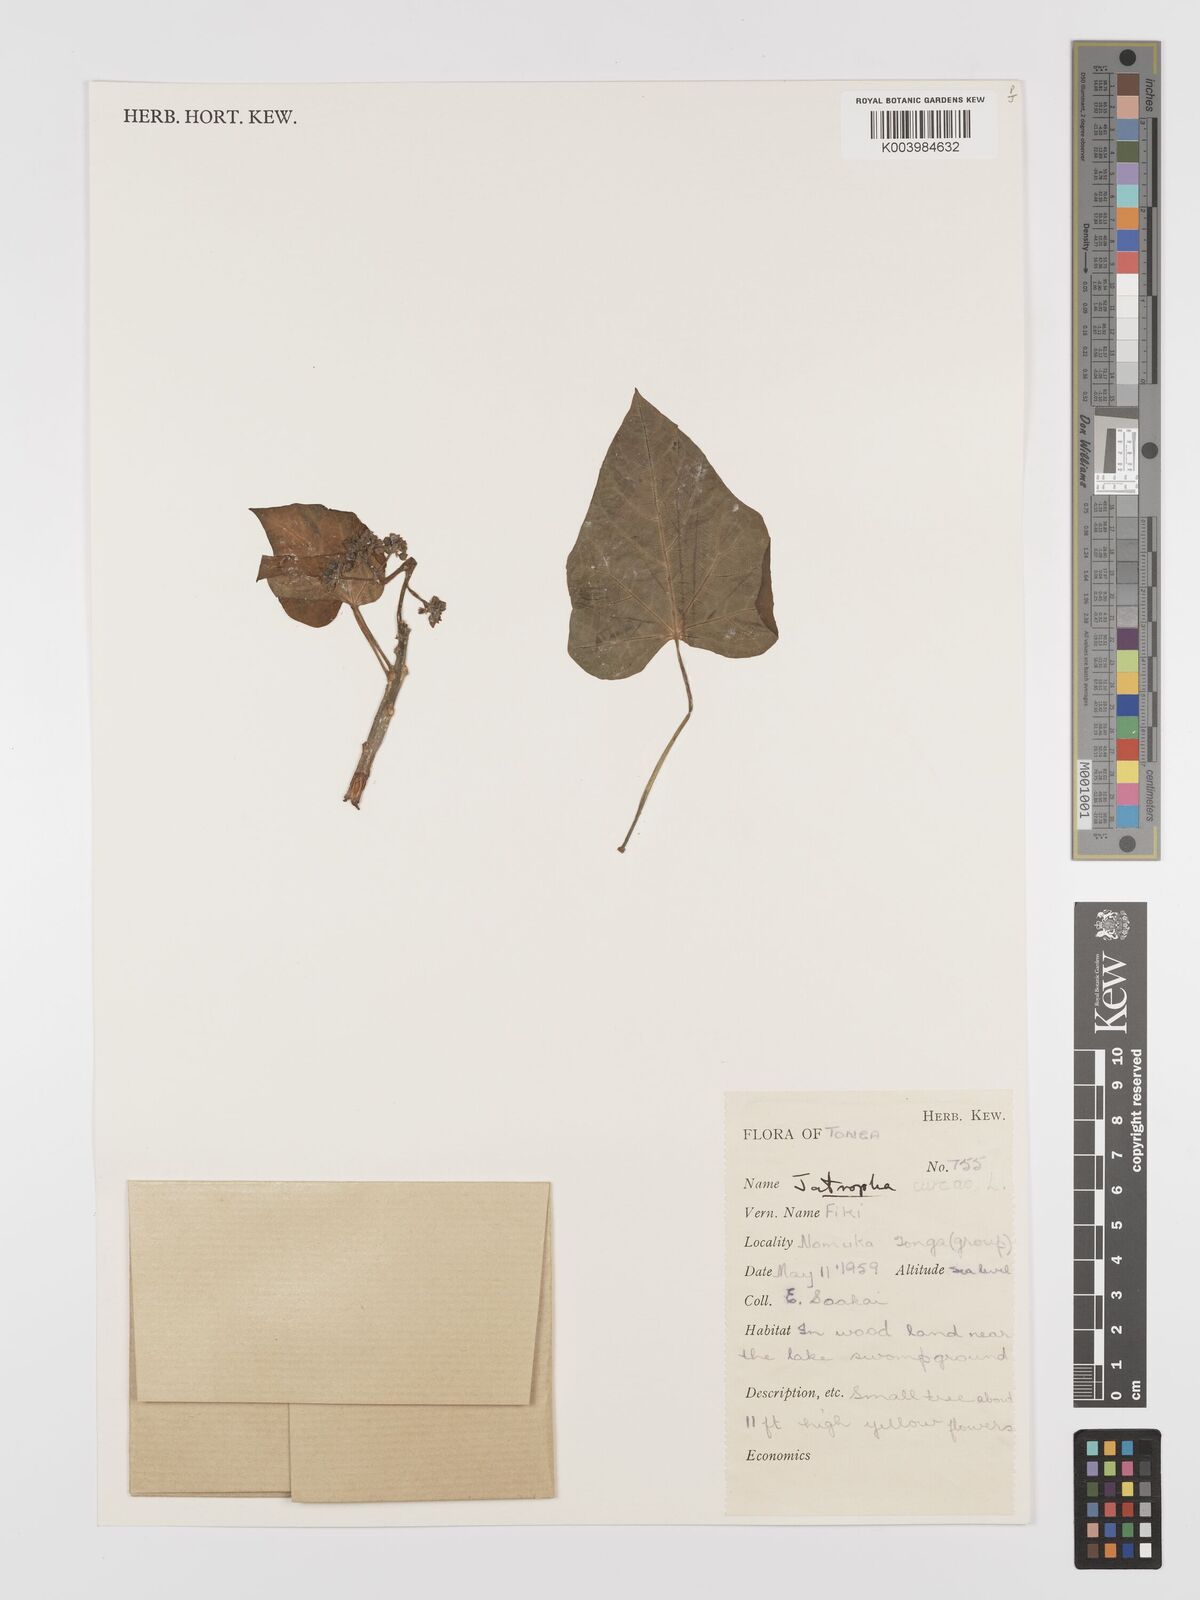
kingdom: Plantae
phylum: Tracheophyta
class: Magnoliopsida
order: Malpighiales
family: Euphorbiaceae
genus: Jatropha
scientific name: Jatropha curcas
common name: Barbados nut
